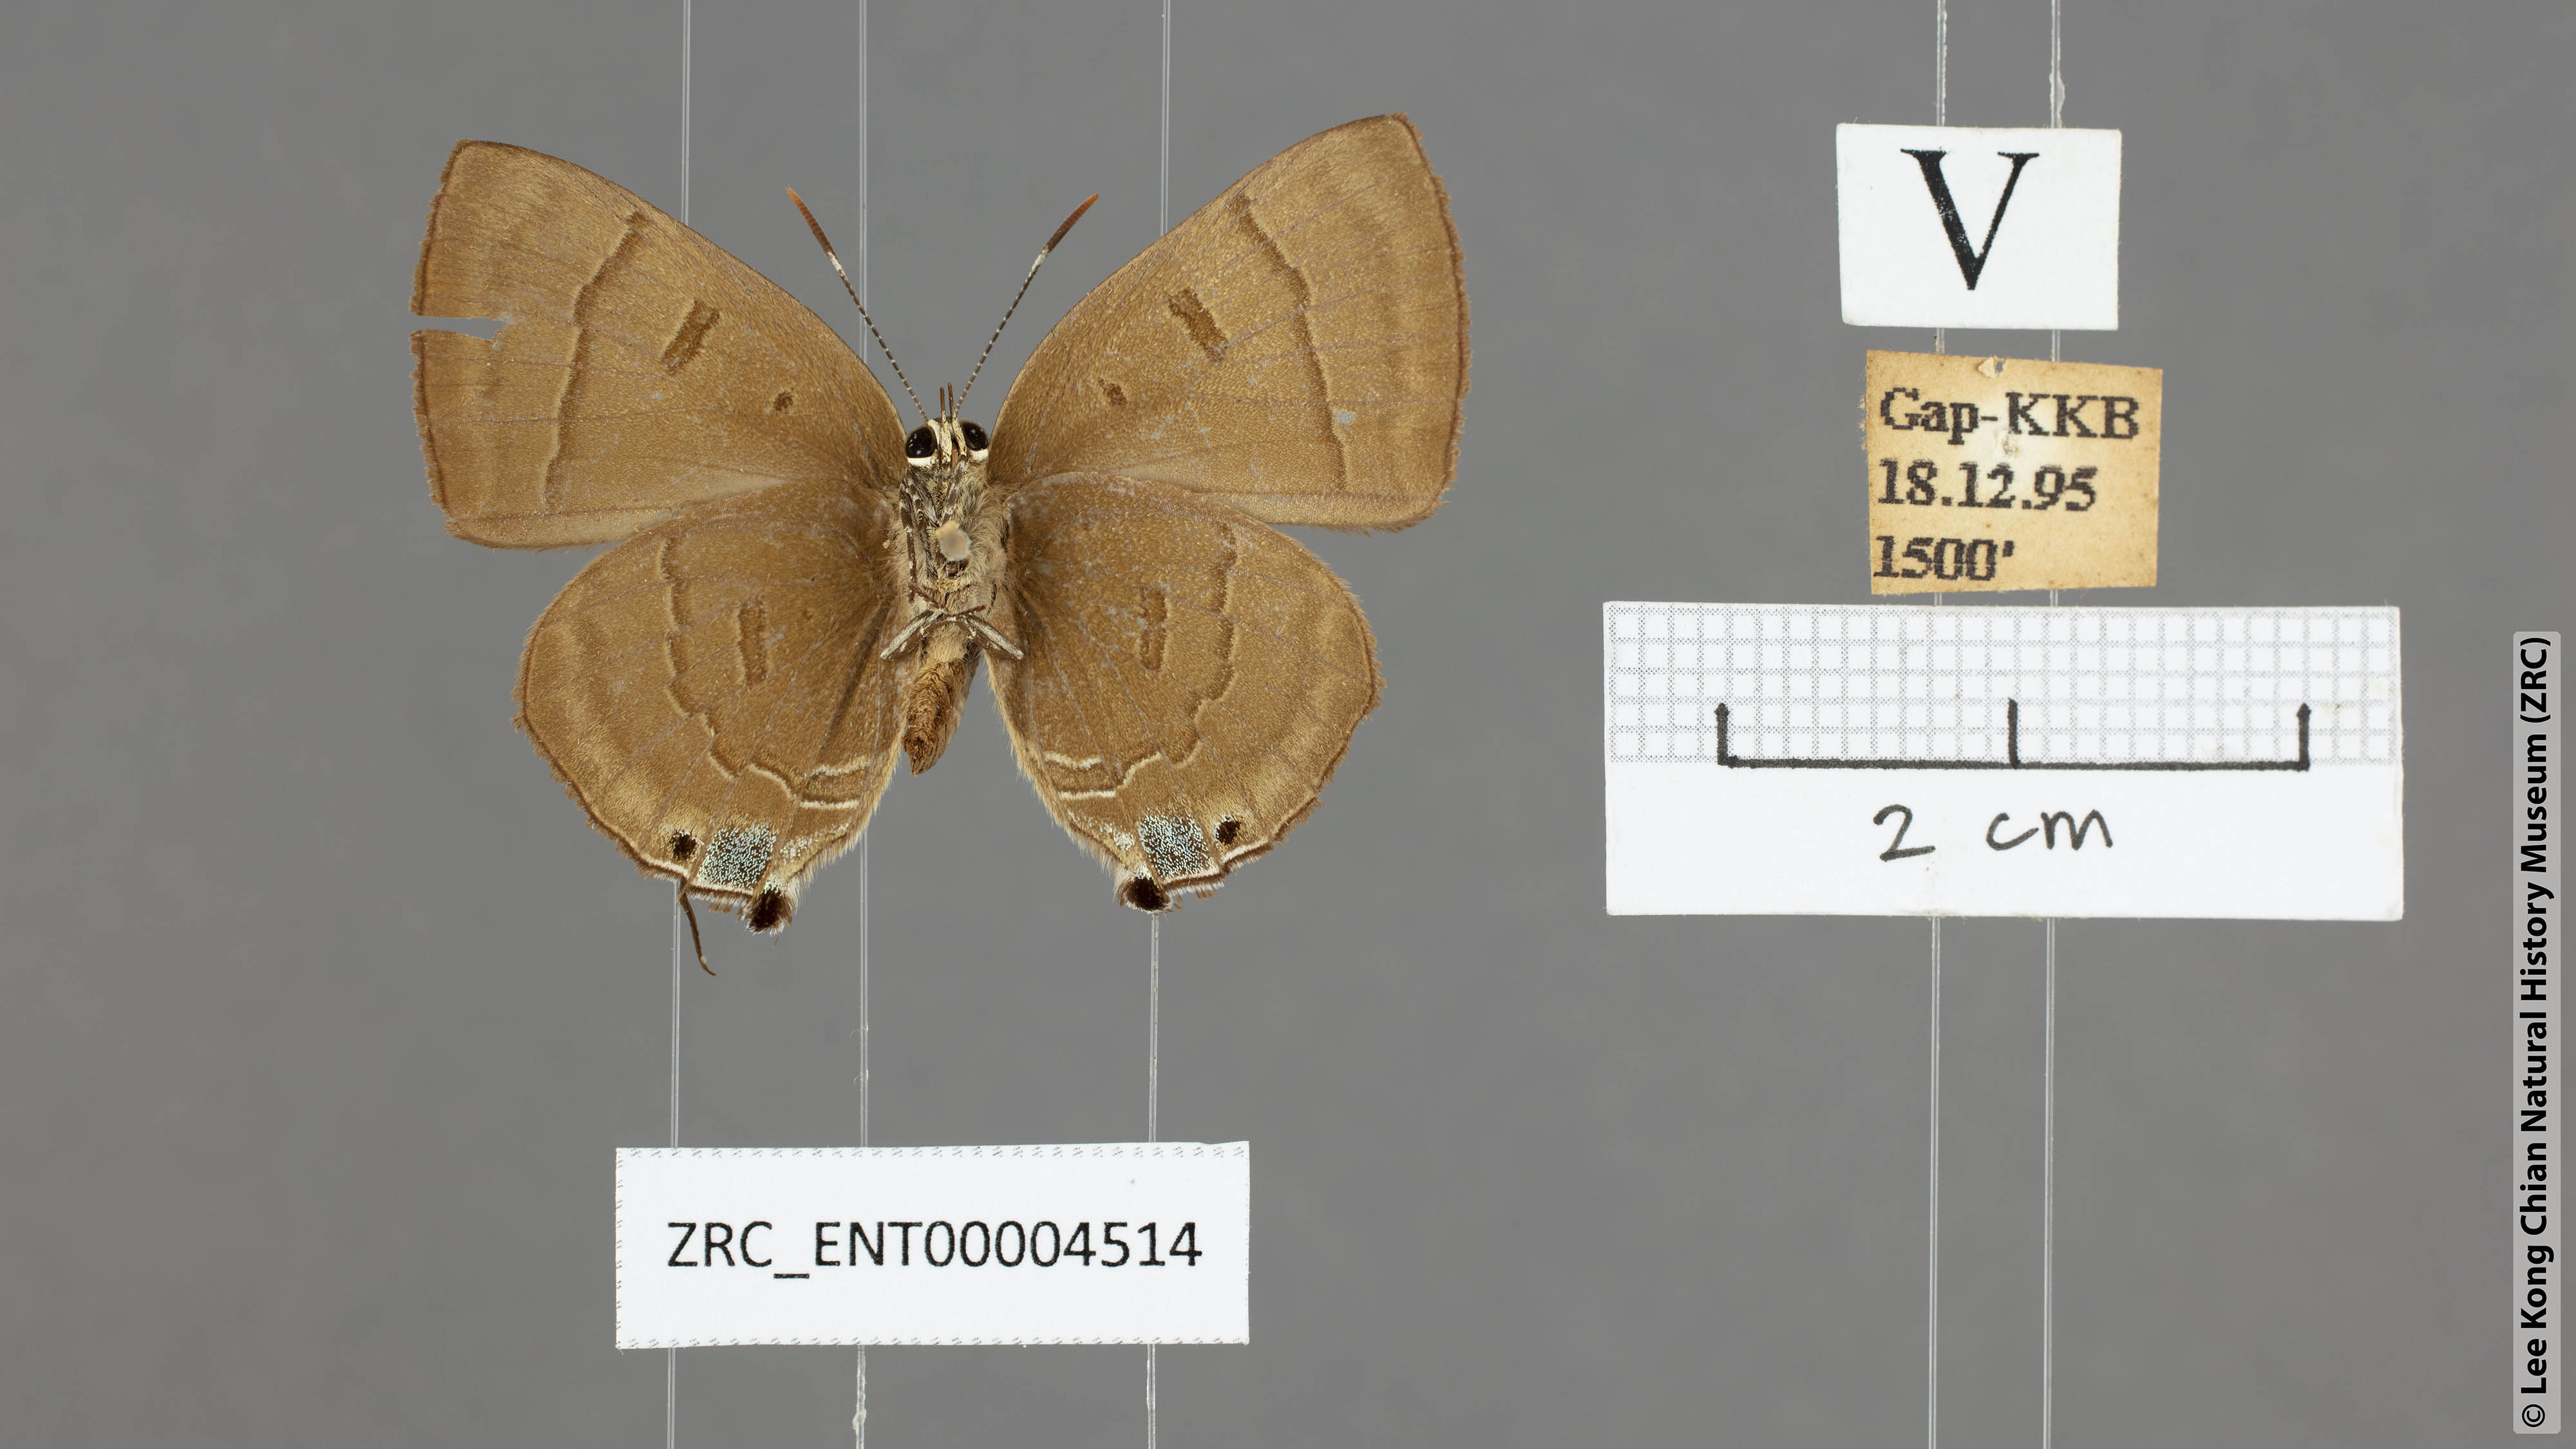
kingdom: Animalia
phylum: Arthropoda
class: Insecta
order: Lepidoptera
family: Lycaenidae
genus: Rapala
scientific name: Rapala rhoecus
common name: Brilliant flash
